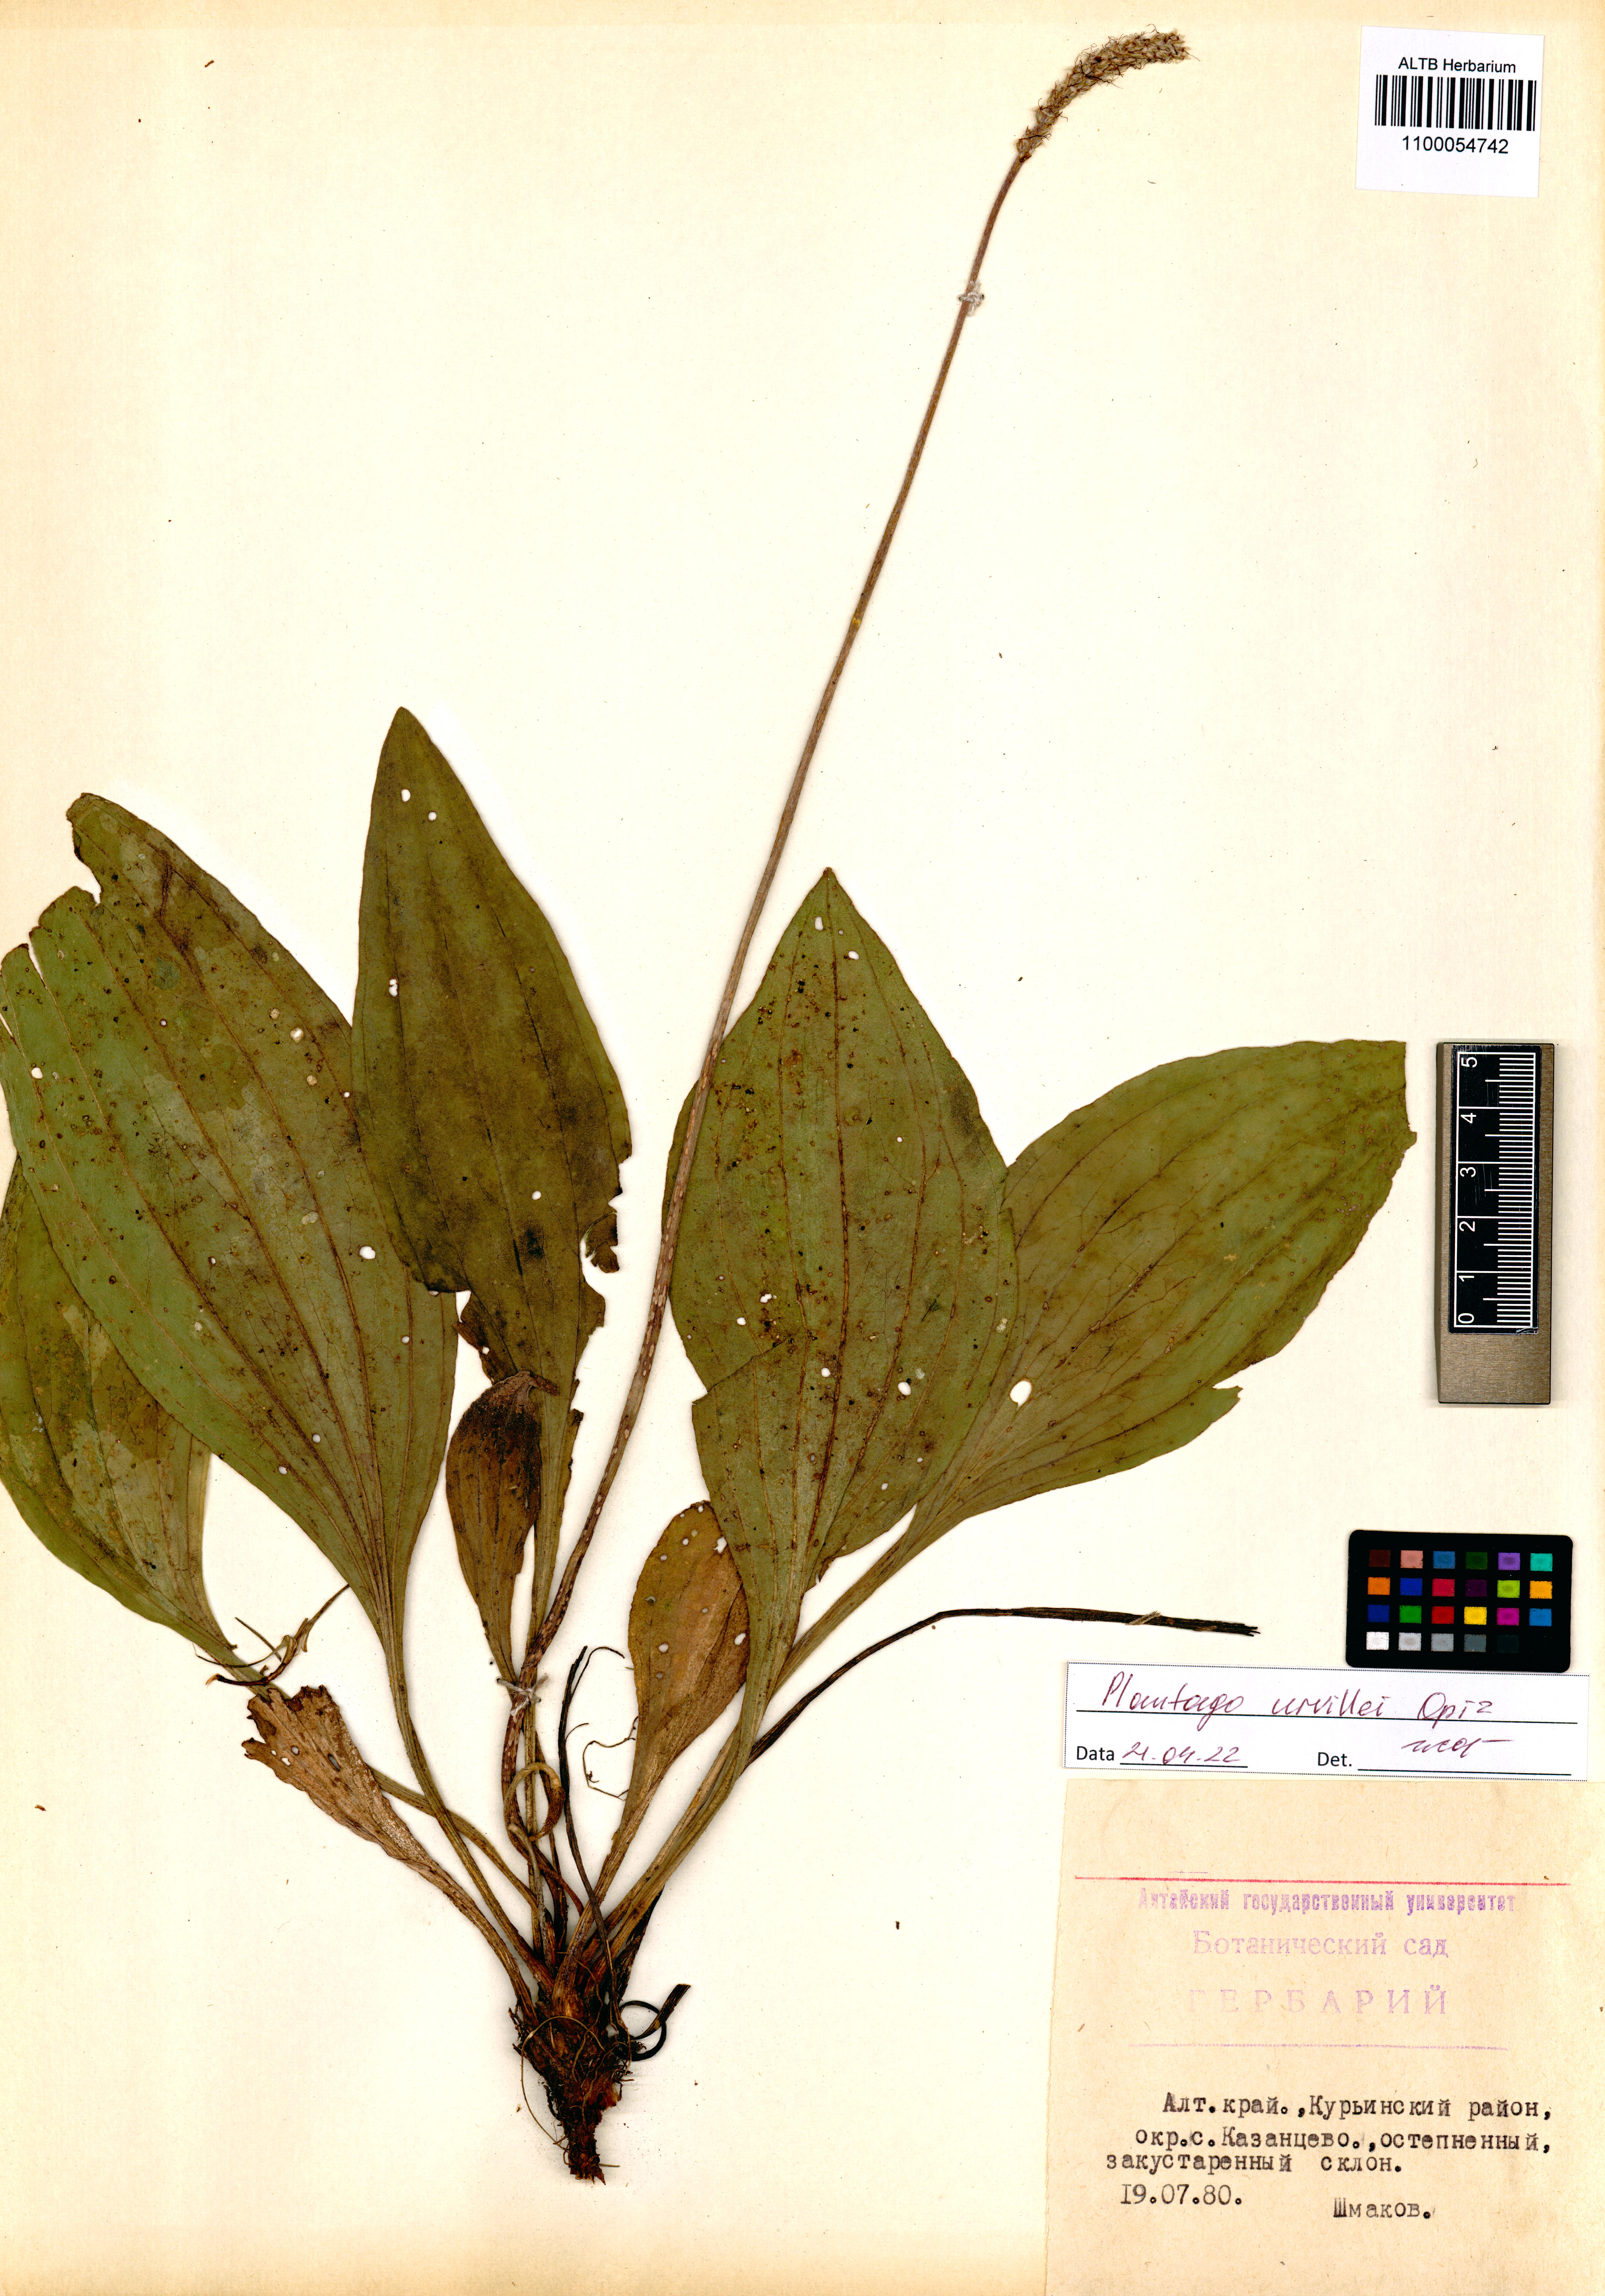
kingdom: Plantae
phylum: Tracheophyta
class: Magnoliopsida
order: Lamiales
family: Plantaginaceae
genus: Plantago
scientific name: Plantago urvillei
